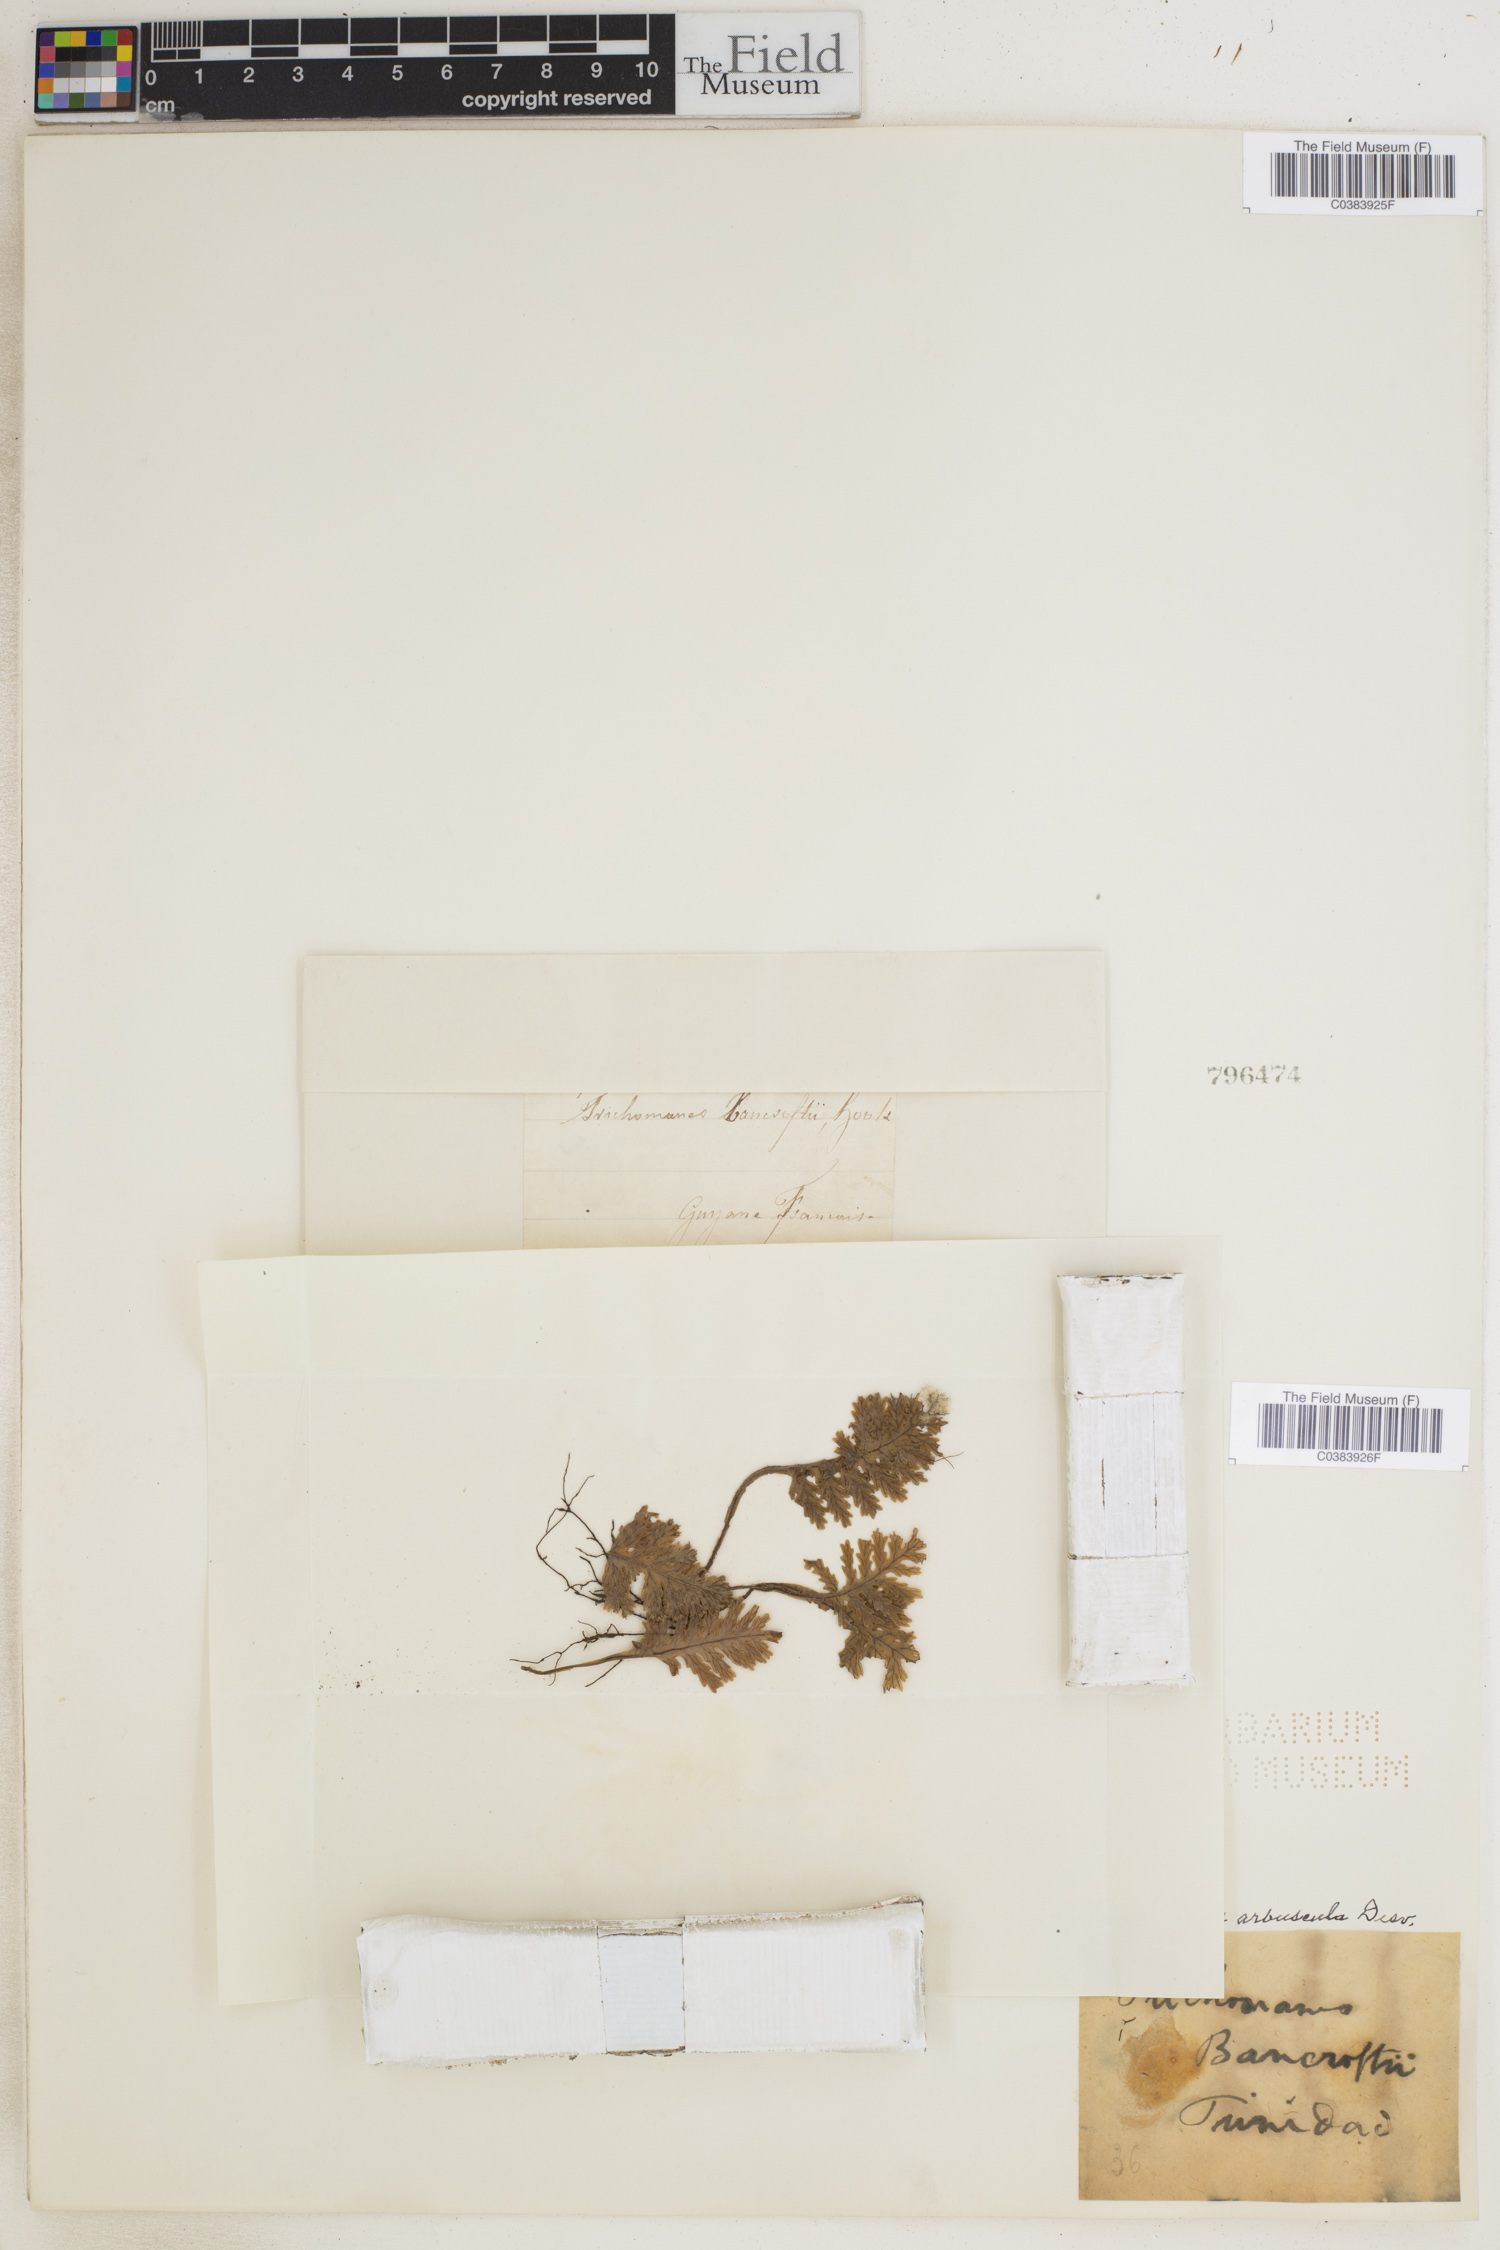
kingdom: Plantae
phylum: Tracheophyta
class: Polypodiopsida
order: Hymenophyllales
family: Hymenophyllaceae
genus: Trichomanes
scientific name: Trichomanes arbuscula
